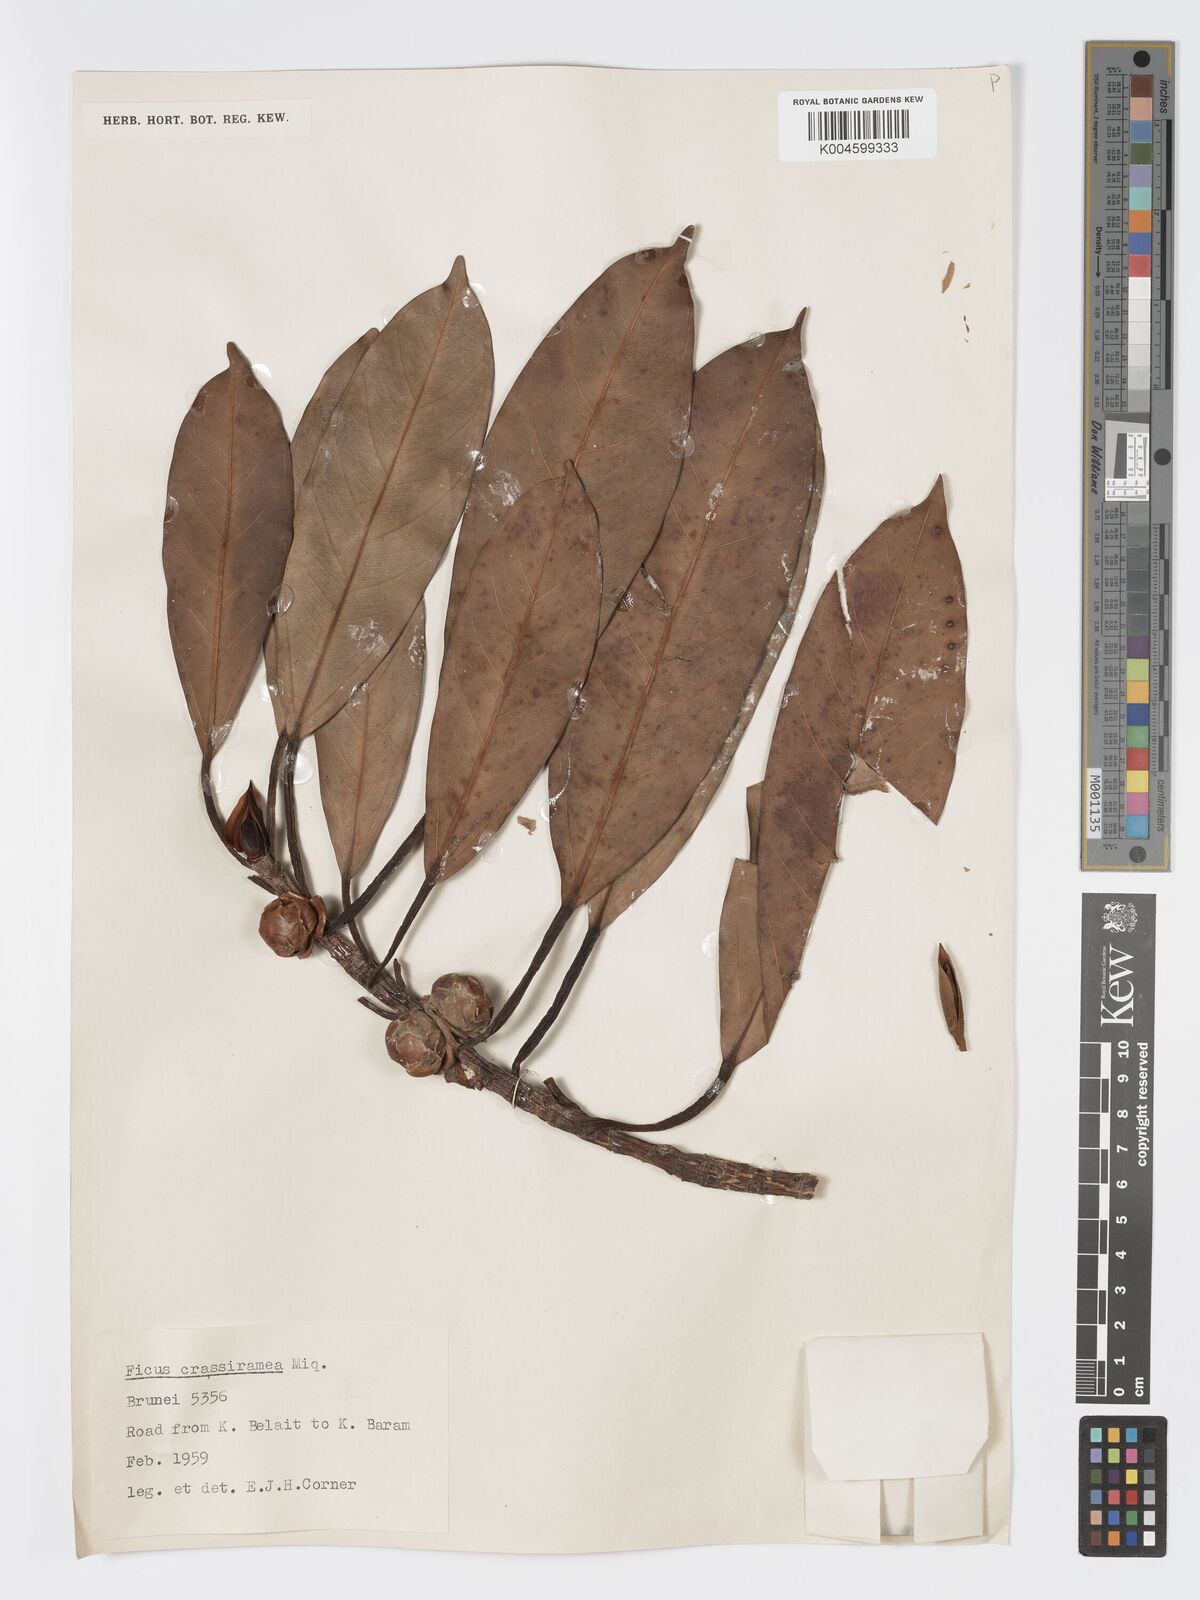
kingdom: Plantae
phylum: Tracheophyta
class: Magnoliopsida
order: Rosales
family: Moraceae
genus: Ficus
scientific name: Ficus crassiramea
